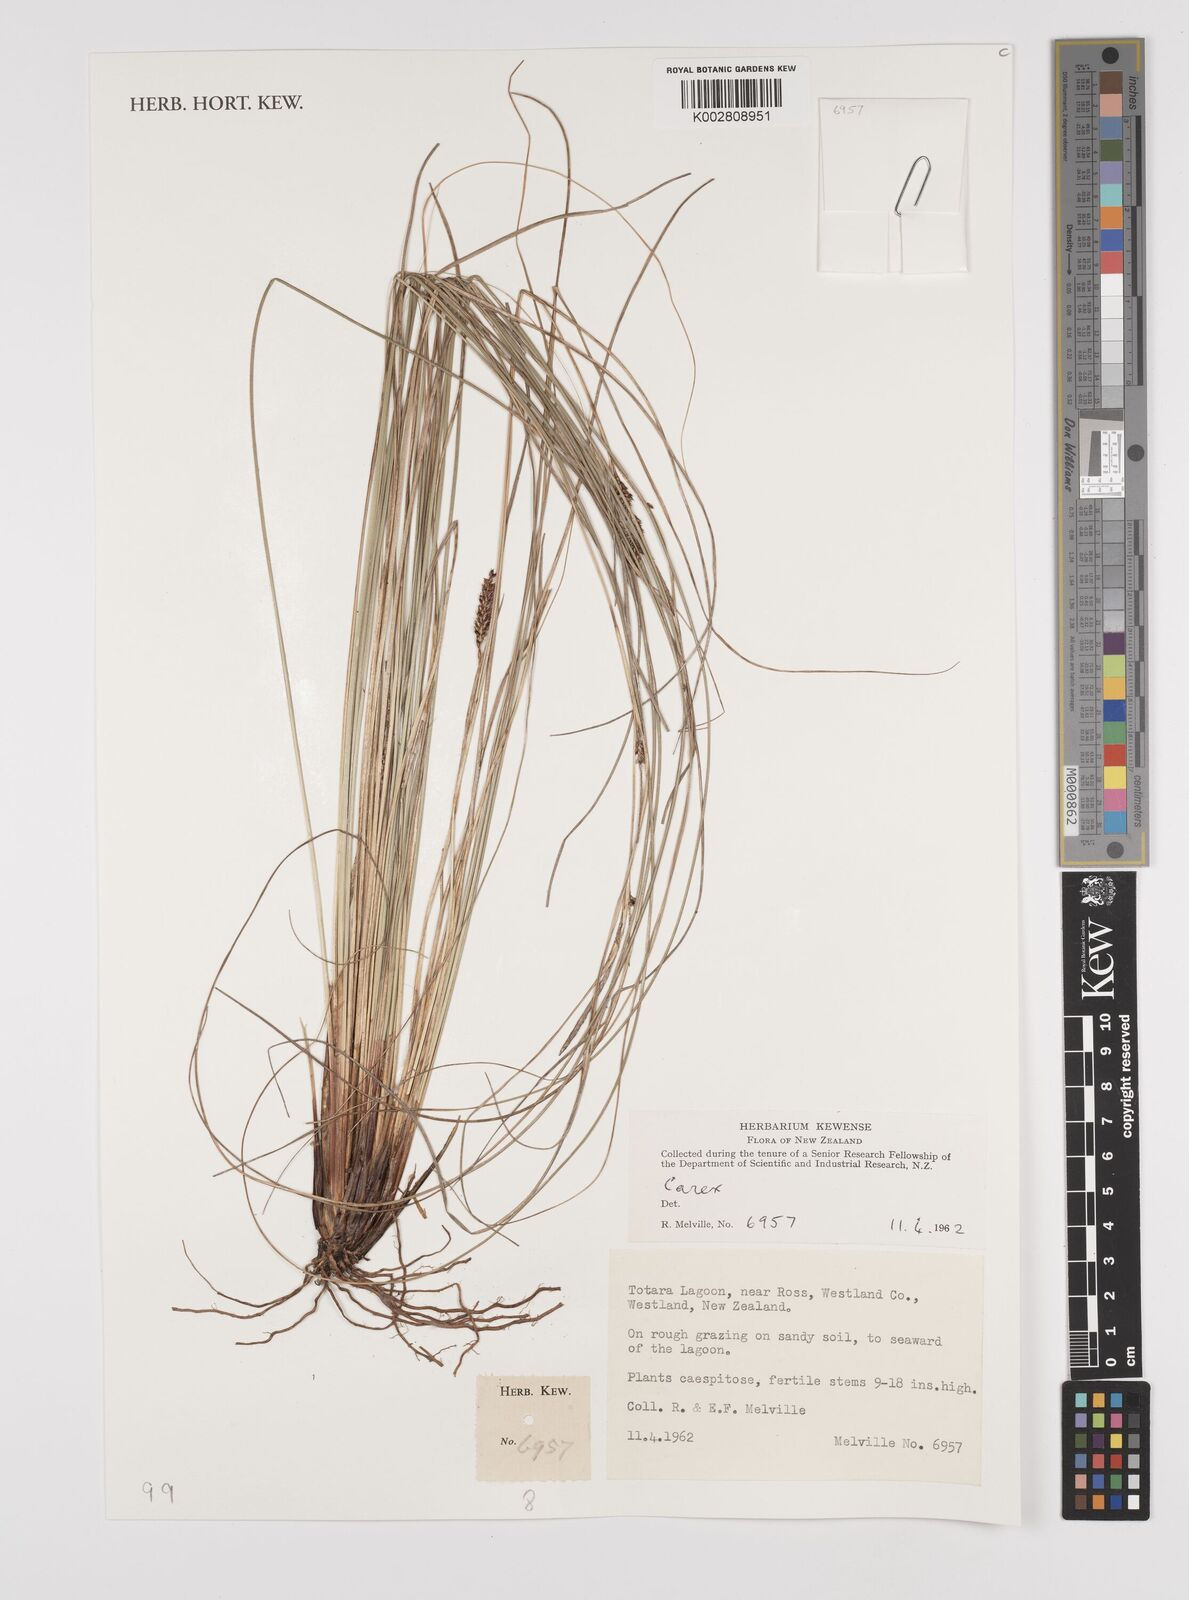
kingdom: Plantae
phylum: Tracheophyta
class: Liliopsida
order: Poales
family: Cyperaceae
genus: Carex
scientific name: Carex
